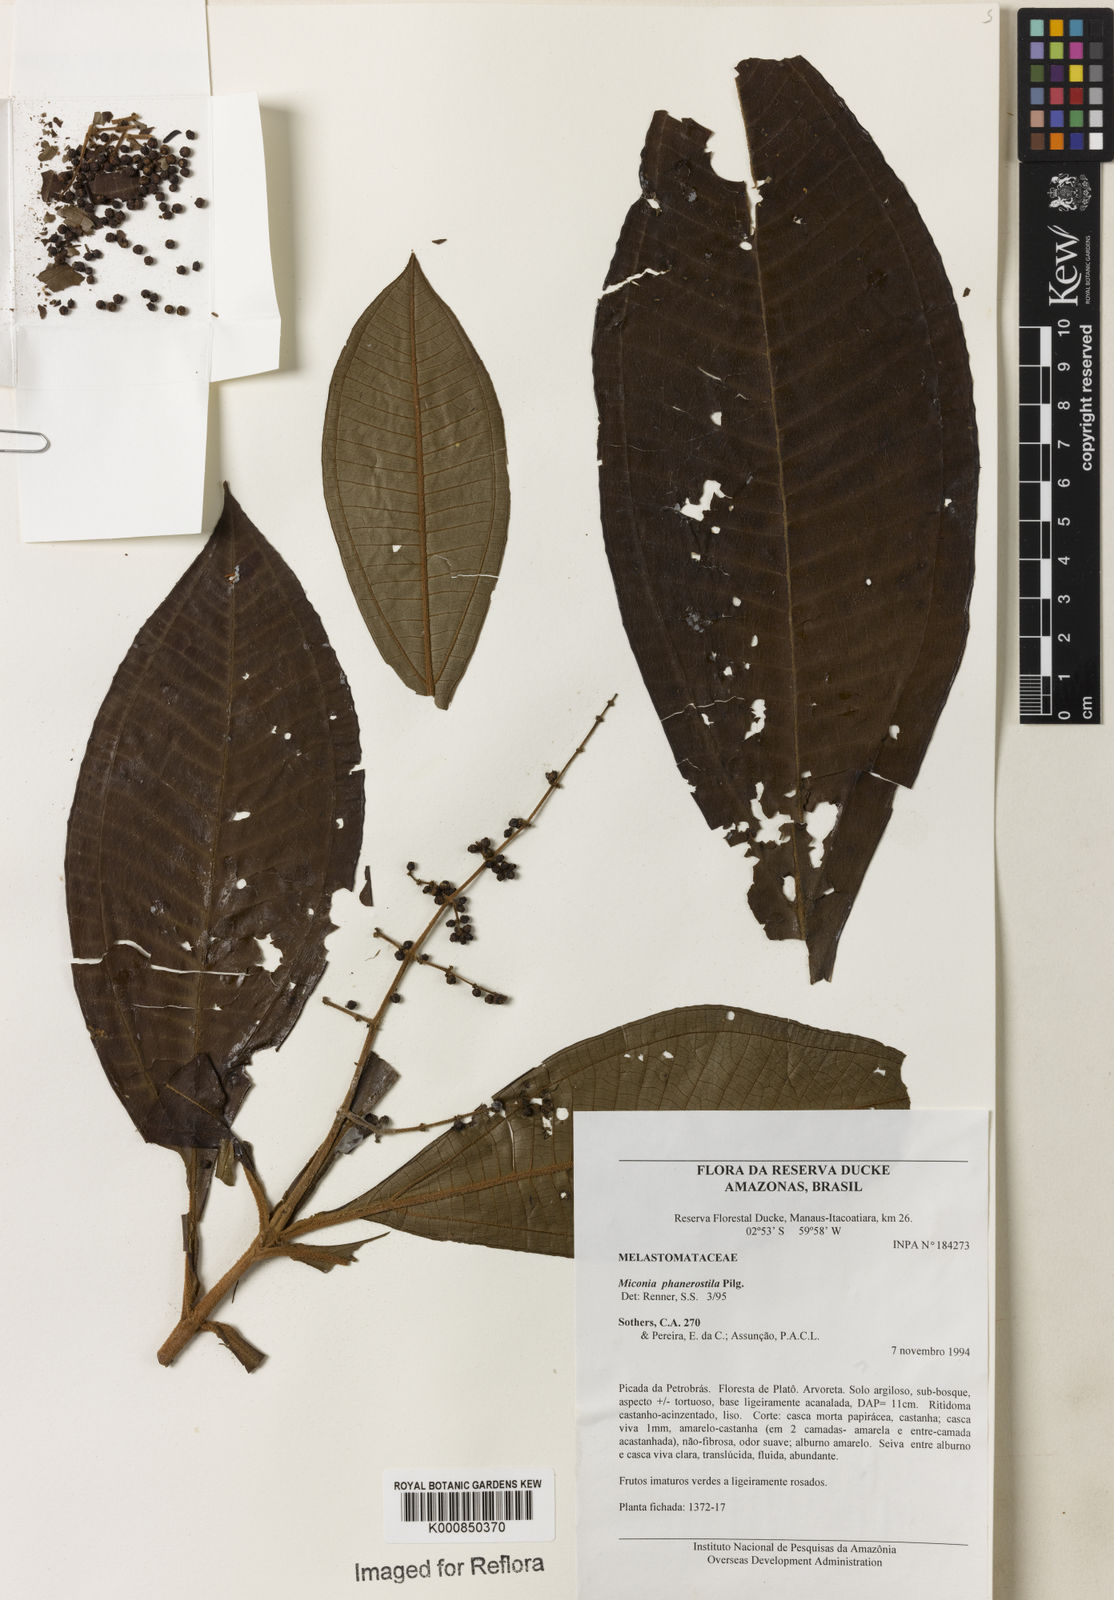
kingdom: Plantae
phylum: Tracheophyta
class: Magnoliopsida
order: Myrtales
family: Melastomataceae
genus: Miconia
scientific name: Miconia phanerostila
